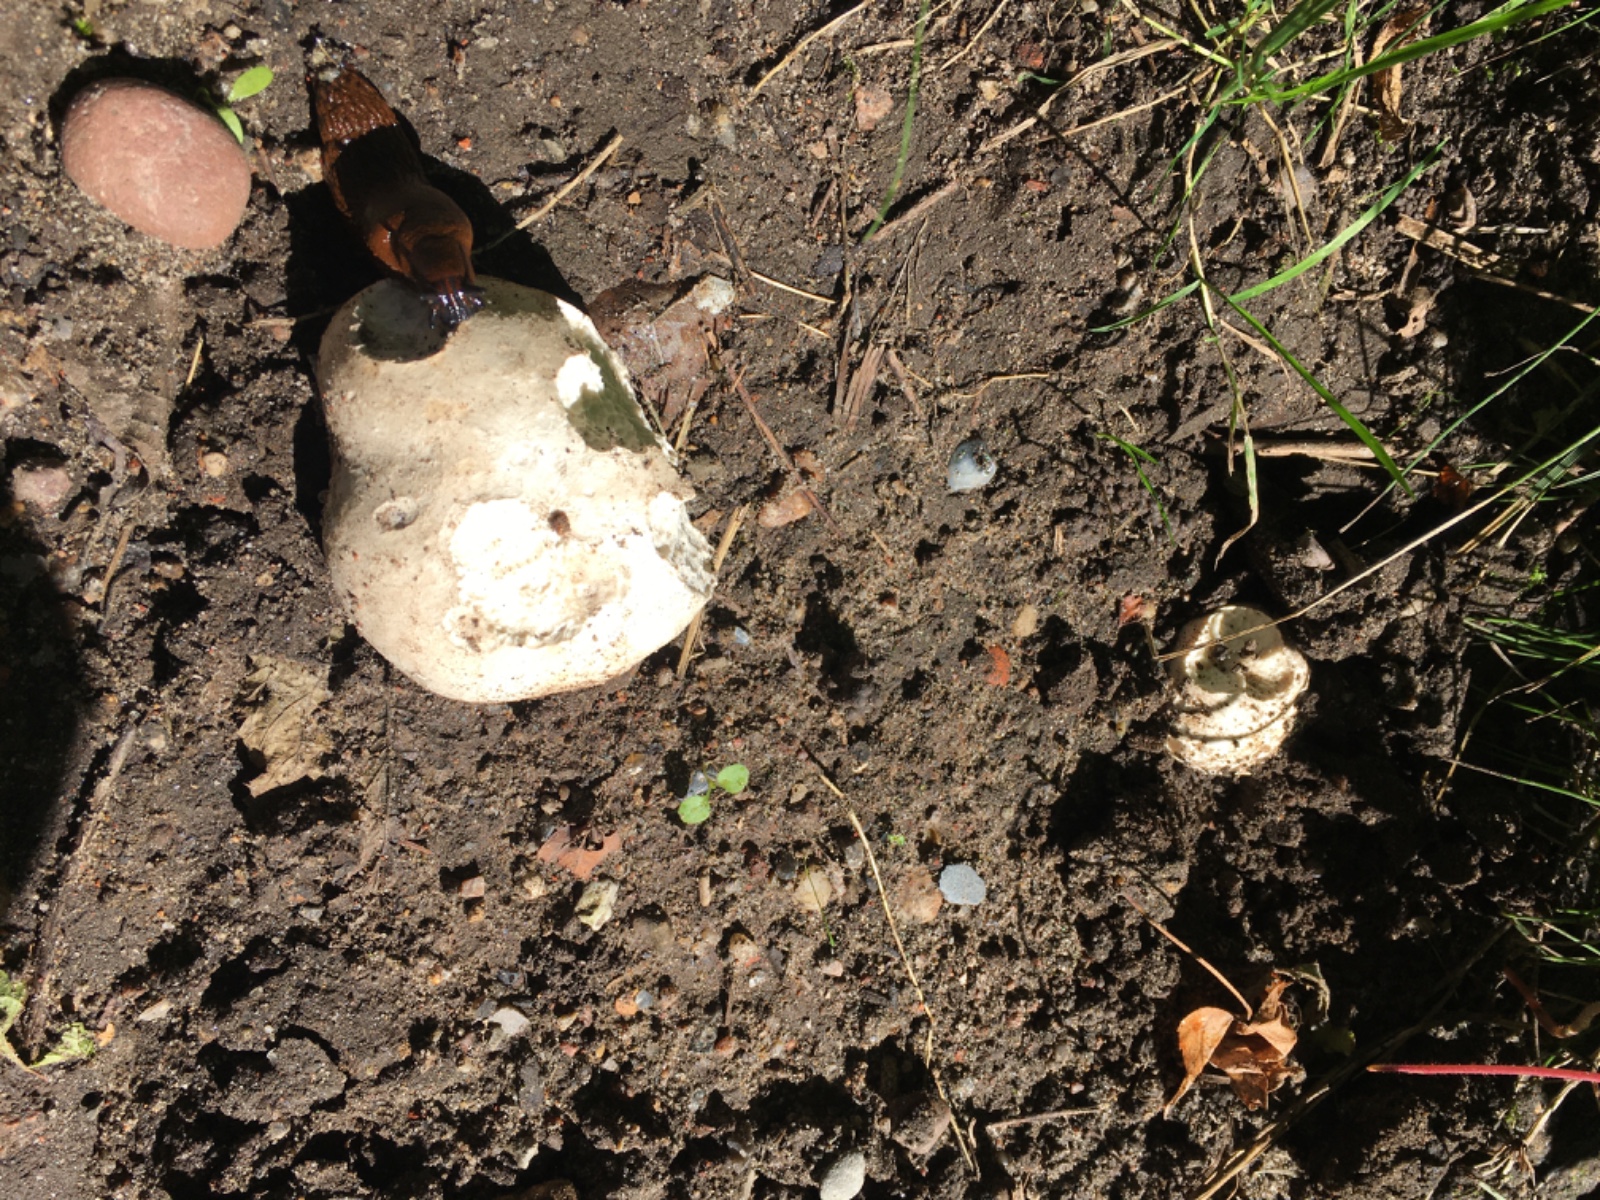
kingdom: Fungi
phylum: Basidiomycota
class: Agaricomycetes
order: Agaricales
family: Lycoperdaceae
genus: Calvatia
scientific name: Calvatia gigantea
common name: kæmpestøvbold
